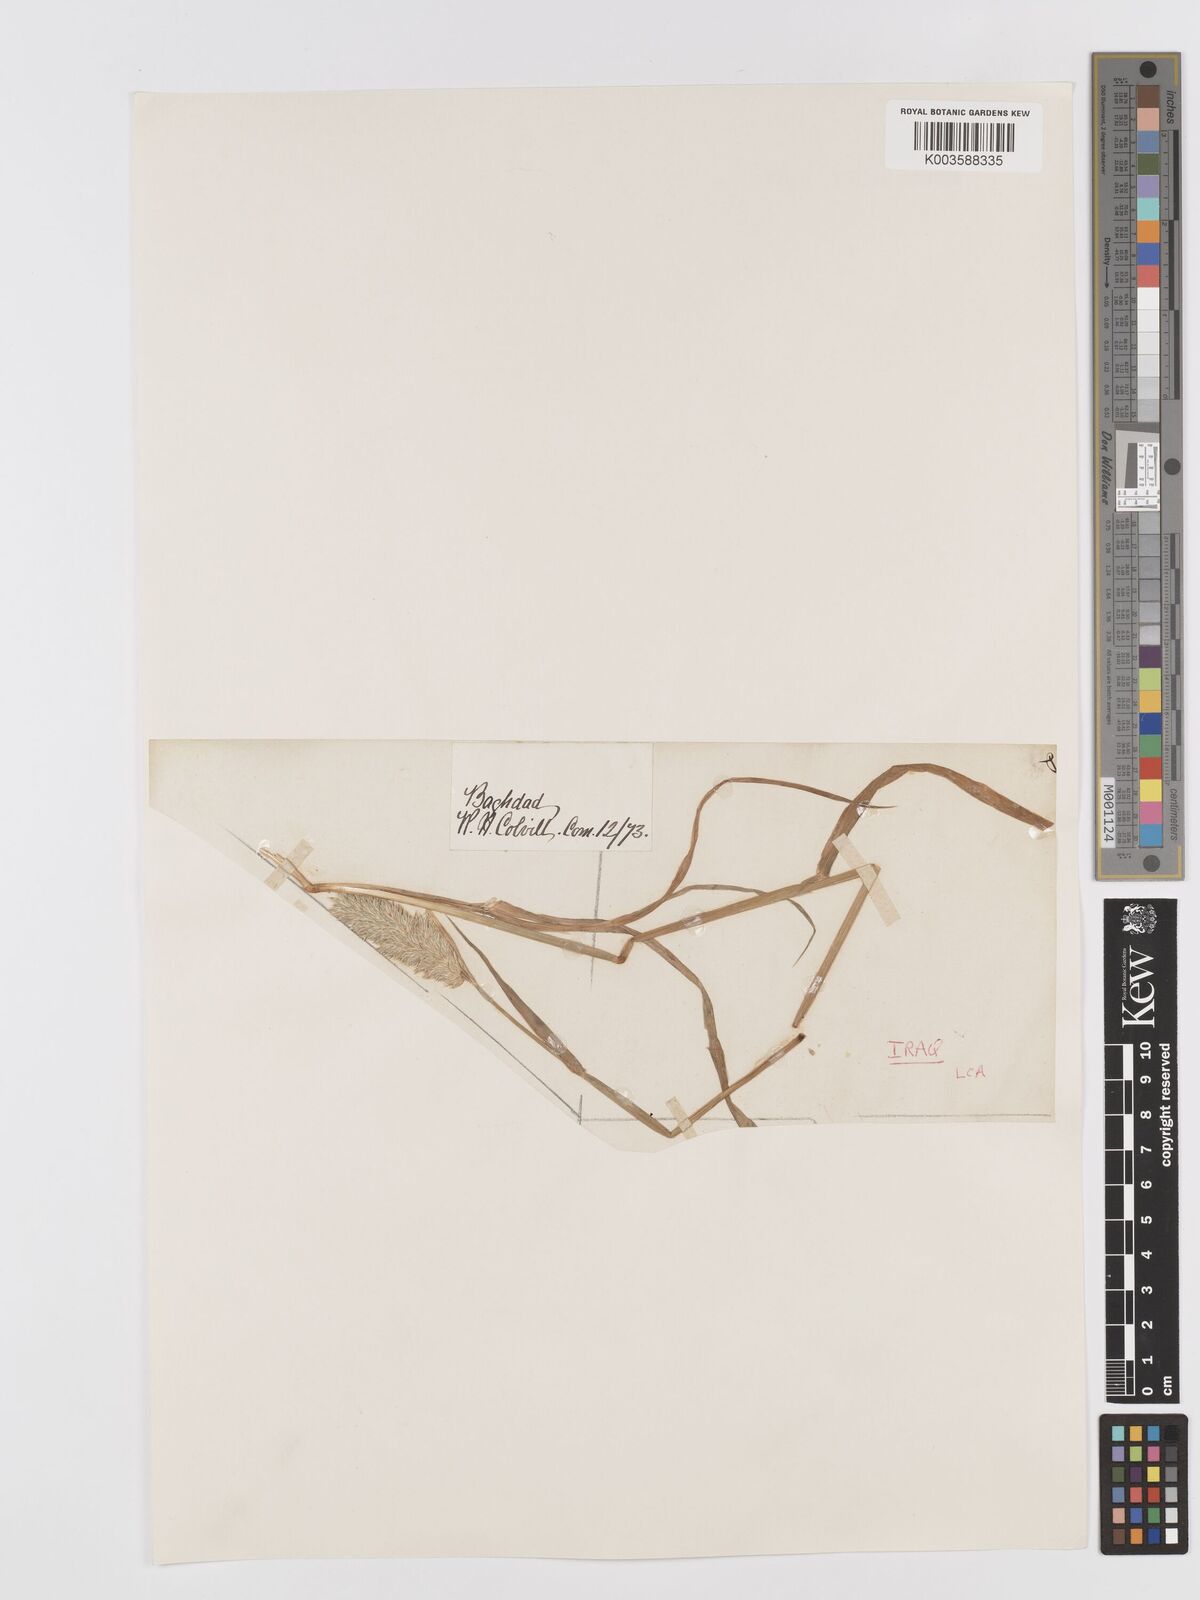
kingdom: Plantae
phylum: Tracheophyta
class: Liliopsida
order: Poales
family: Poaceae
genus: Phalaris
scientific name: Phalaris minor
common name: Littleseed canarygrass
